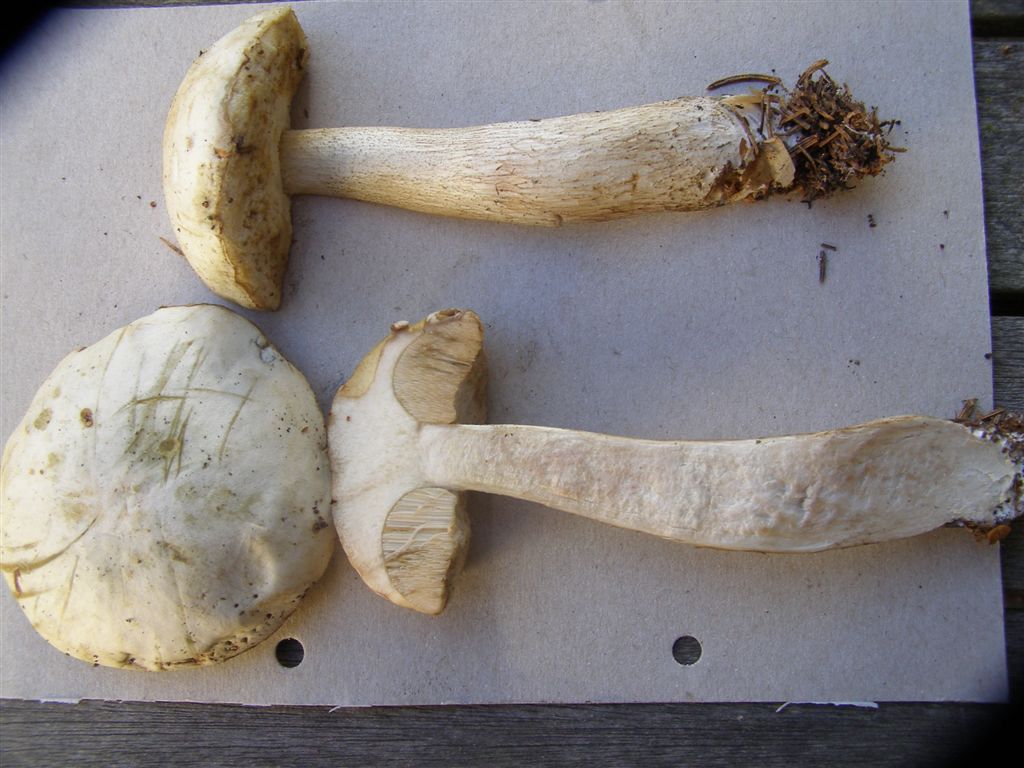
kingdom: Fungi
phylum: Basidiomycota
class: Agaricomycetes
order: Boletales
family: Boletaceae
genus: Leccinum
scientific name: Leccinum scabrum
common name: hvid skælrørhat
